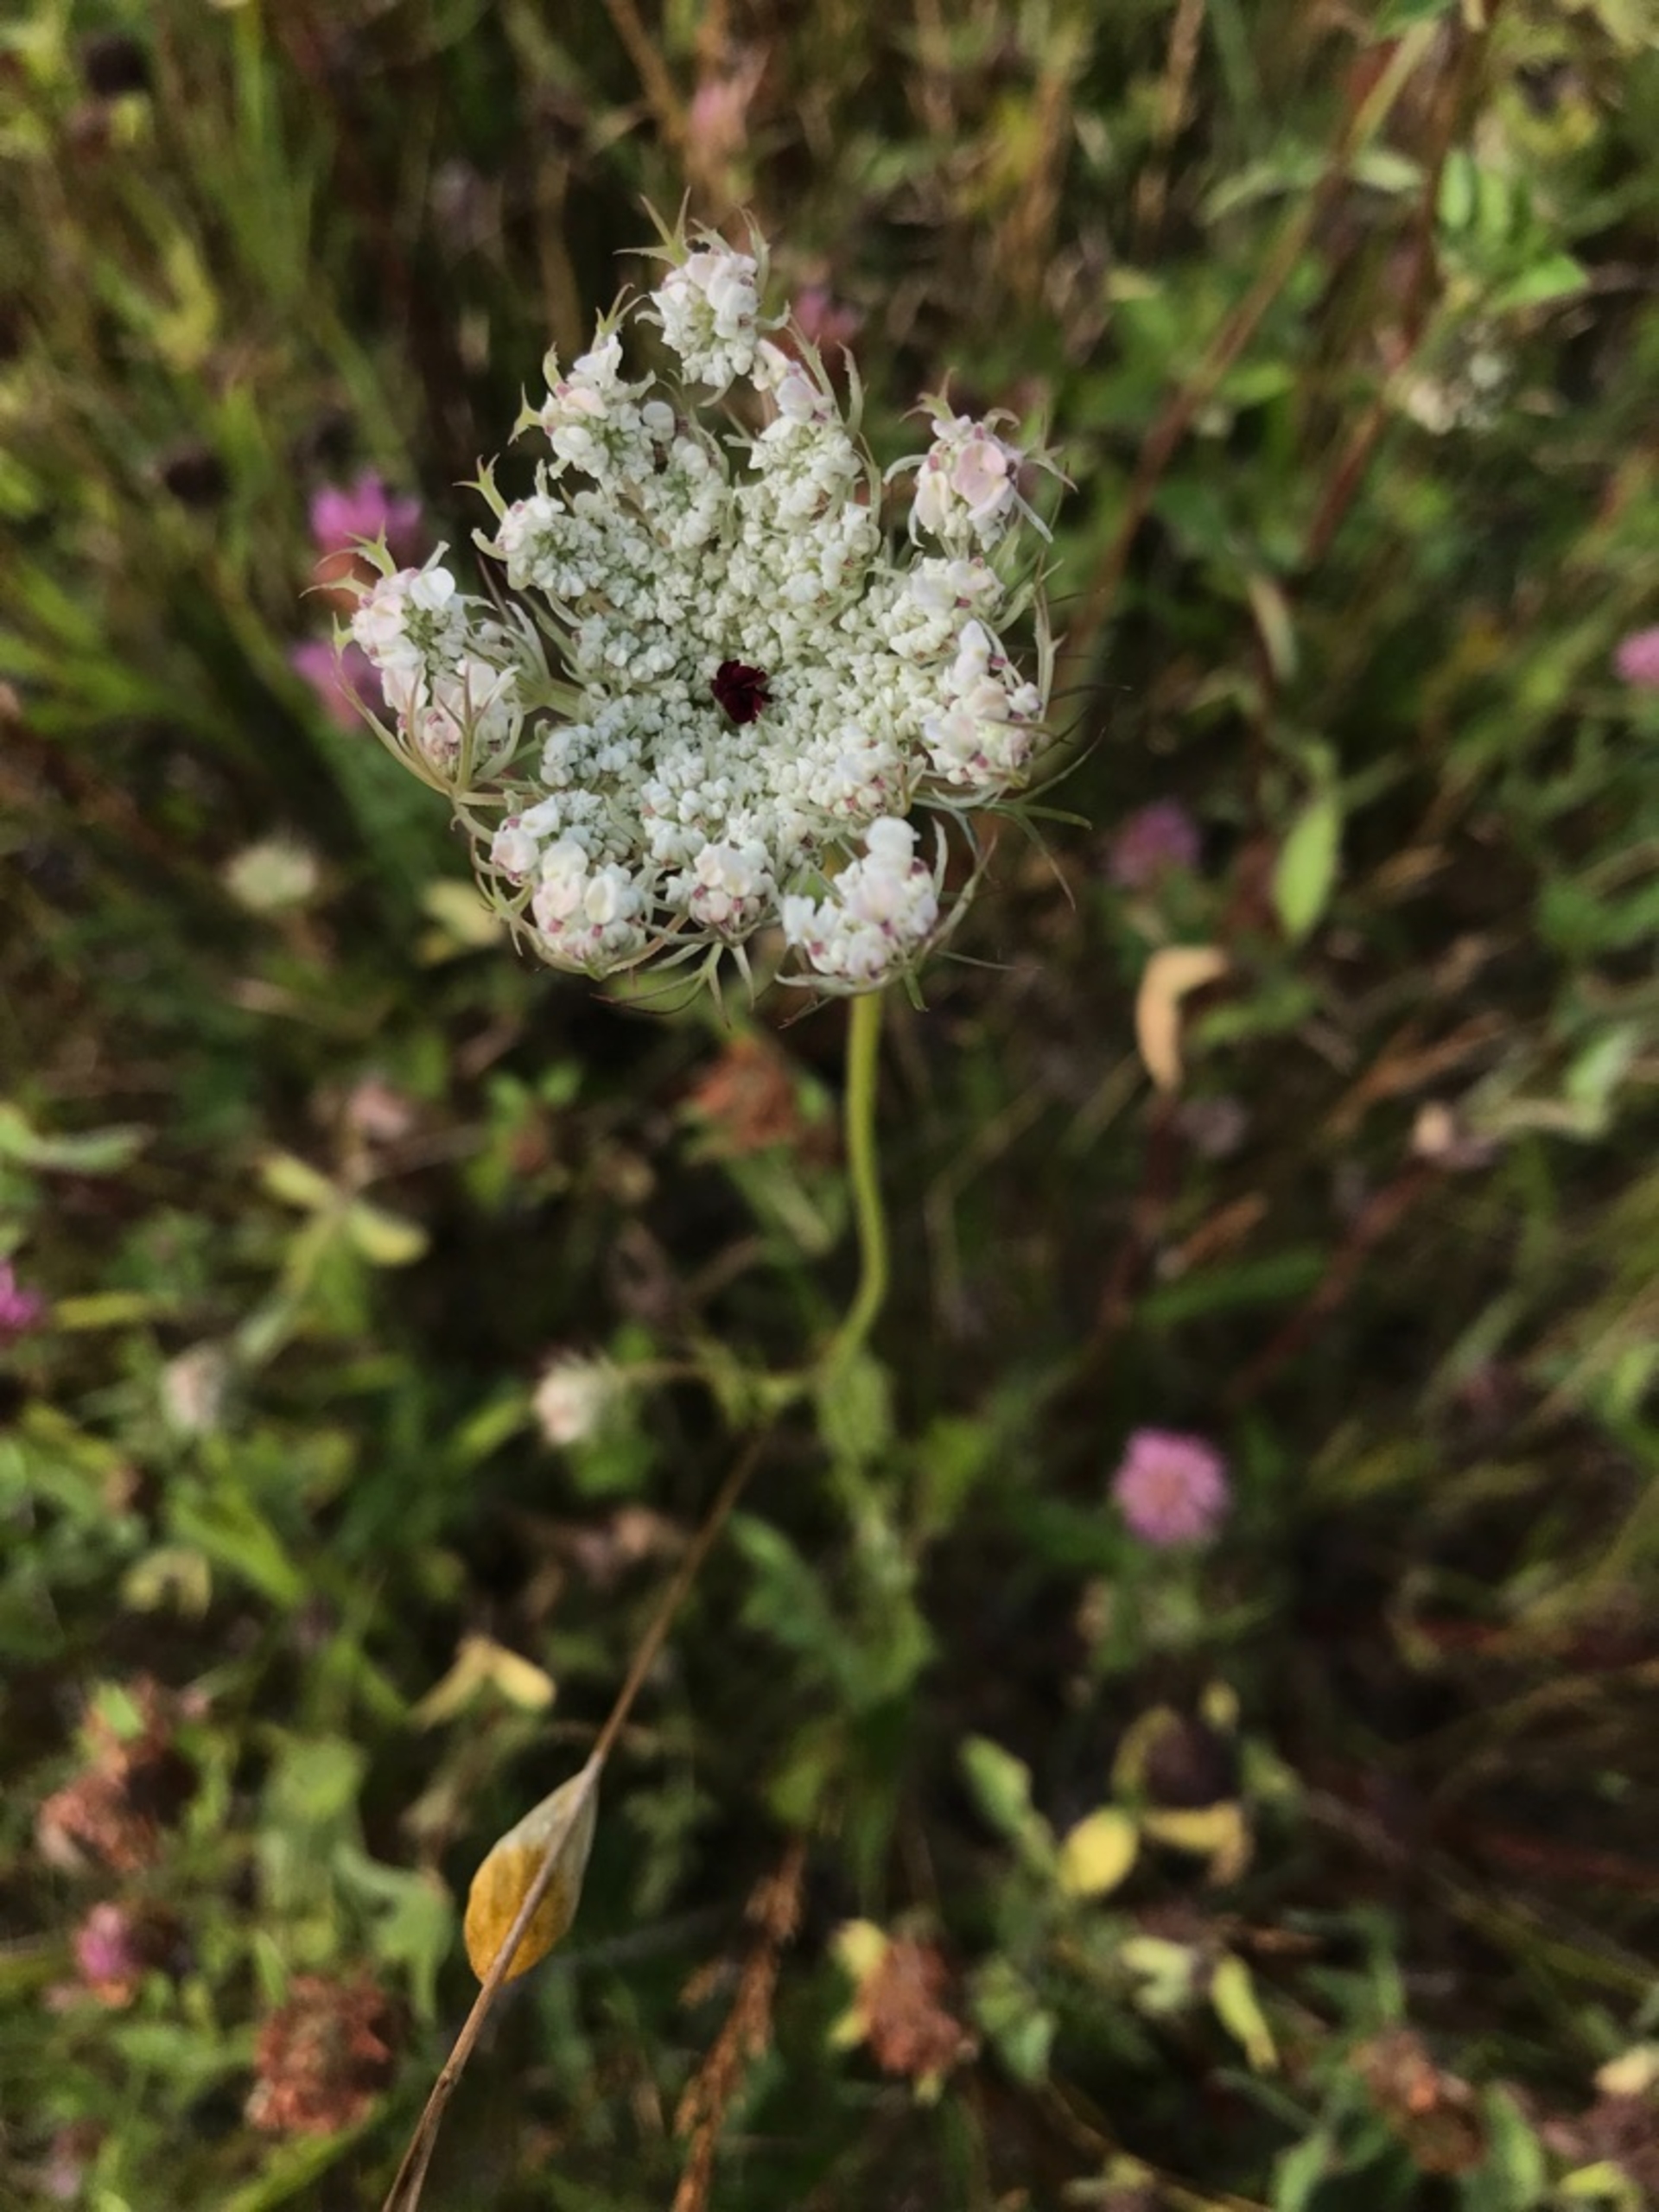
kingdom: Plantae
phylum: Tracheophyta
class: Magnoliopsida
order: Apiales
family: Apiaceae
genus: Daucus
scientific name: Daucus carota
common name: Vild gulerod
